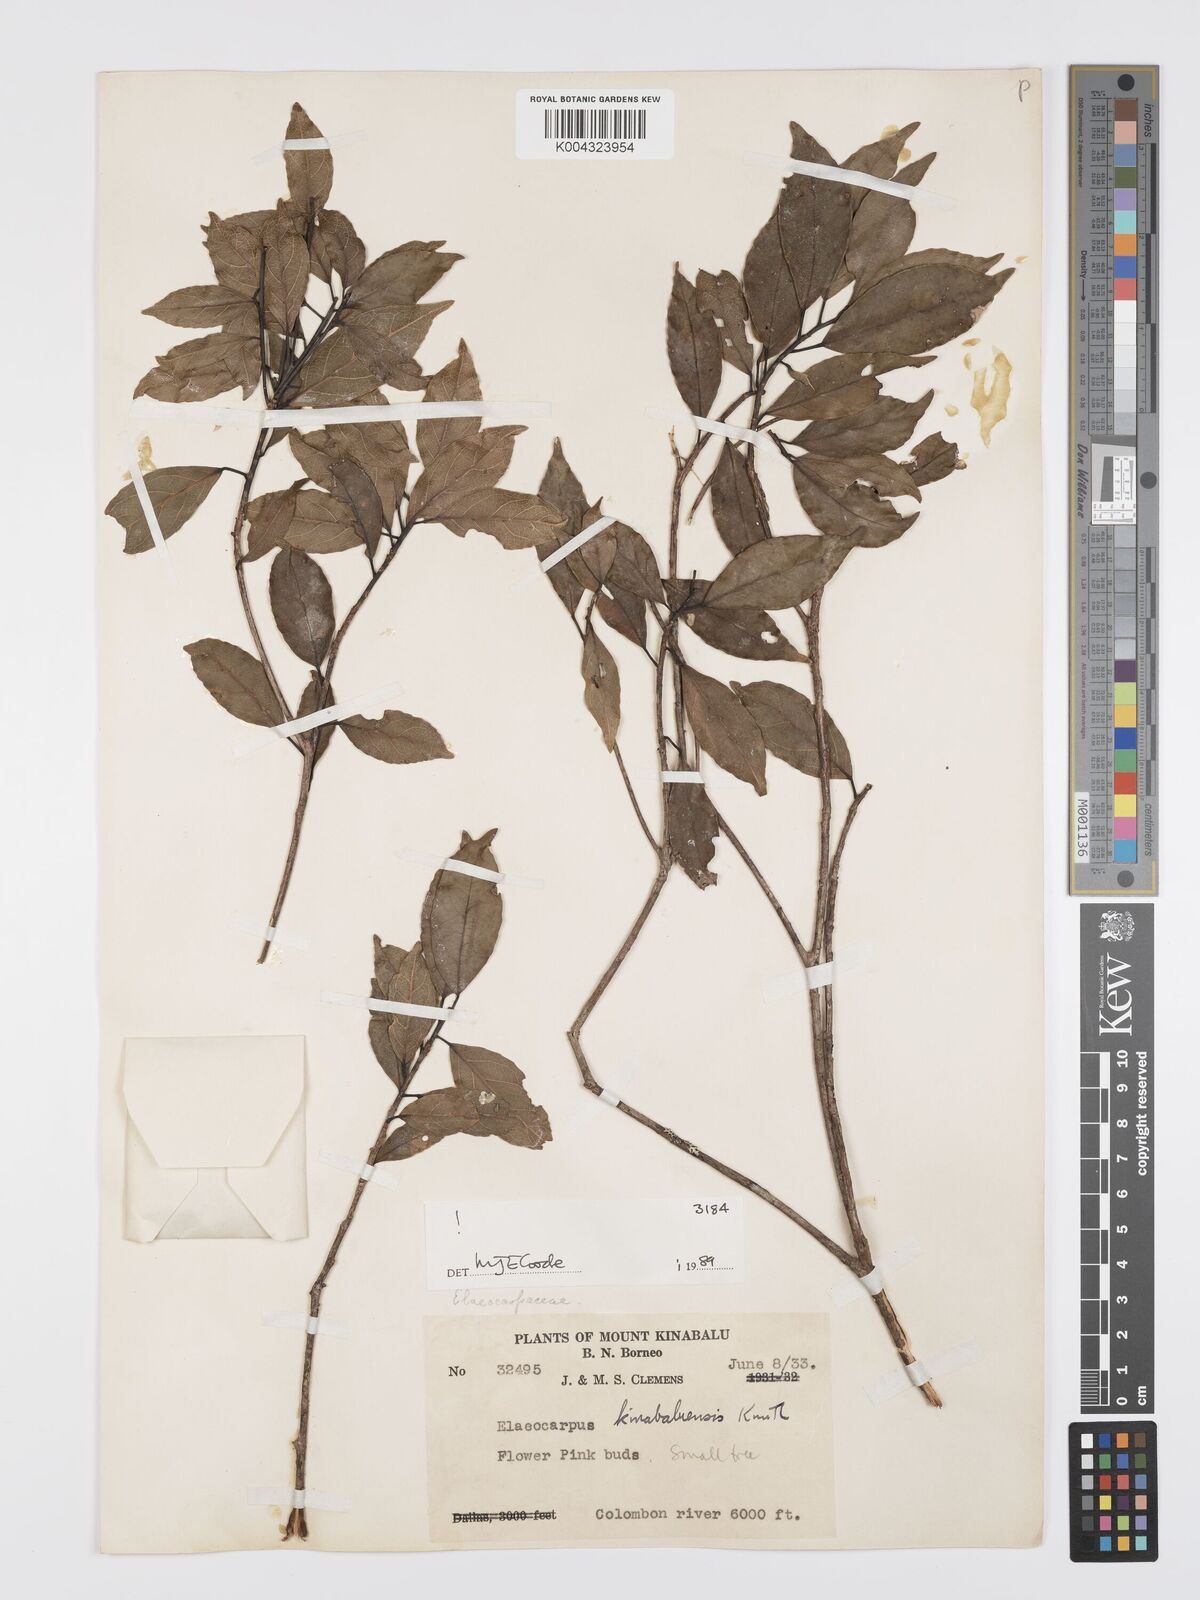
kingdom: Plantae
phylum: Tracheophyta
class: Magnoliopsida
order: Oxalidales
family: Elaeocarpaceae
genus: Elaeocarpus
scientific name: Elaeocarpus kinabaluensis
